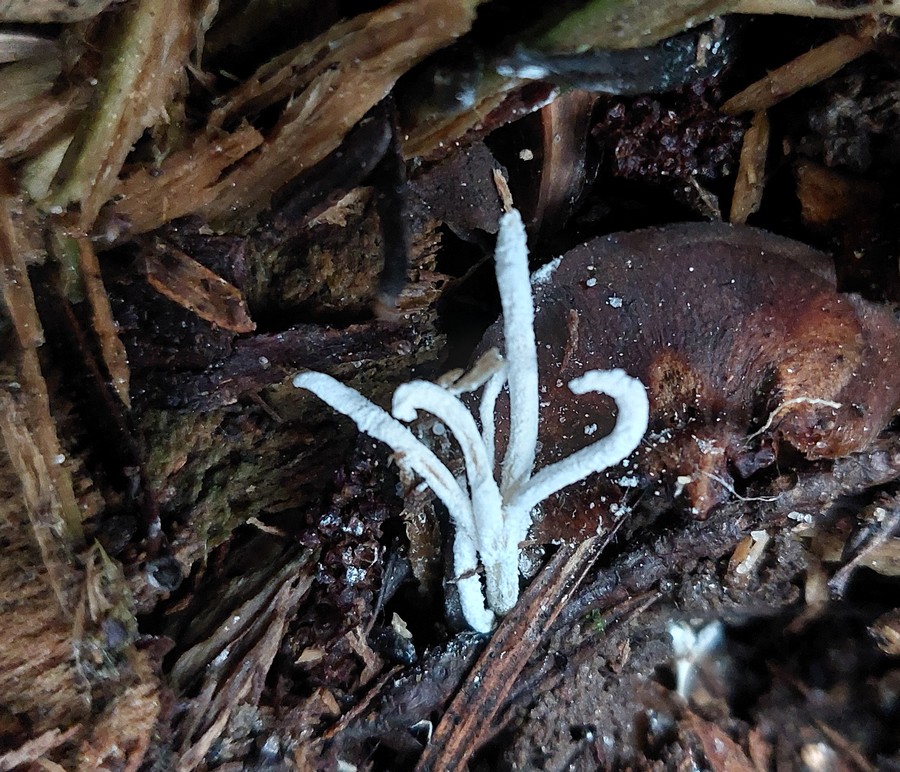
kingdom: Fungi
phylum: Ascomycota
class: Sordariomycetes
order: Hypocreales
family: Cordycipitaceae
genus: Cordyceps
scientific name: Cordyceps farinosa
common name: melet snyltekølle
